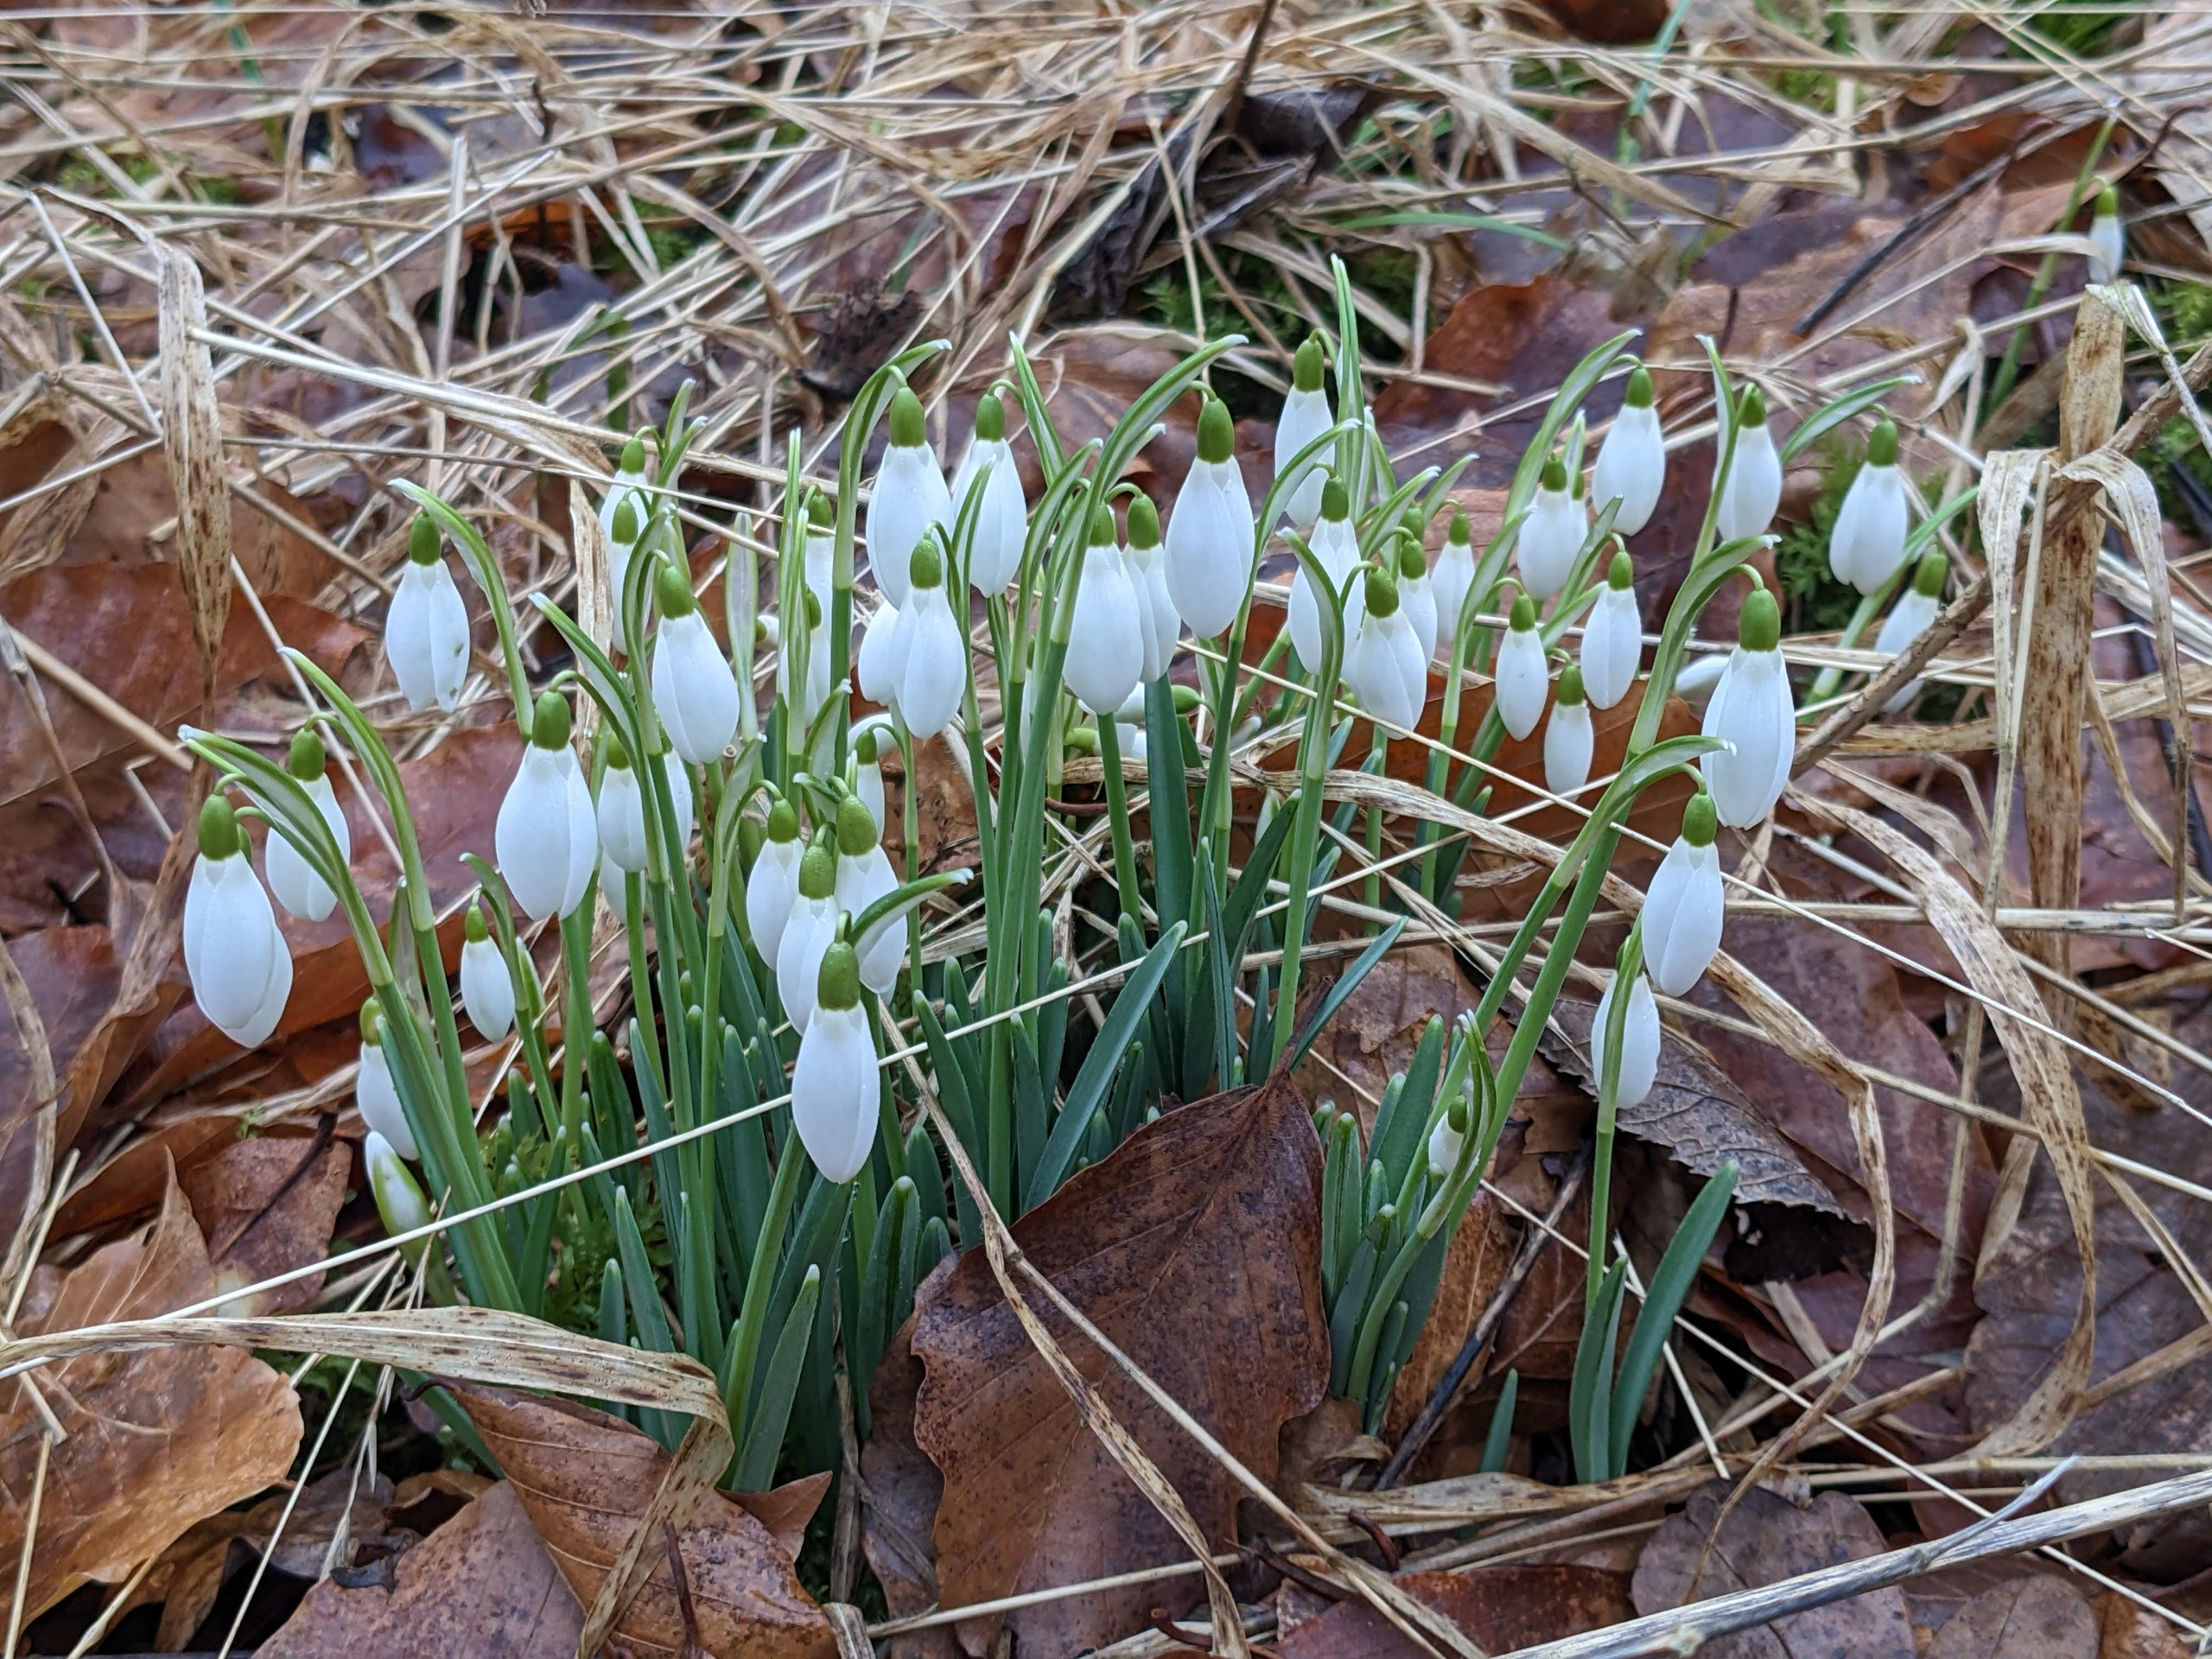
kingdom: Plantae
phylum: Tracheophyta
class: Liliopsida
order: Asparagales
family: Amaryllidaceae
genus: Galanthus
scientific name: Galanthus nivalis
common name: Vintergæk
